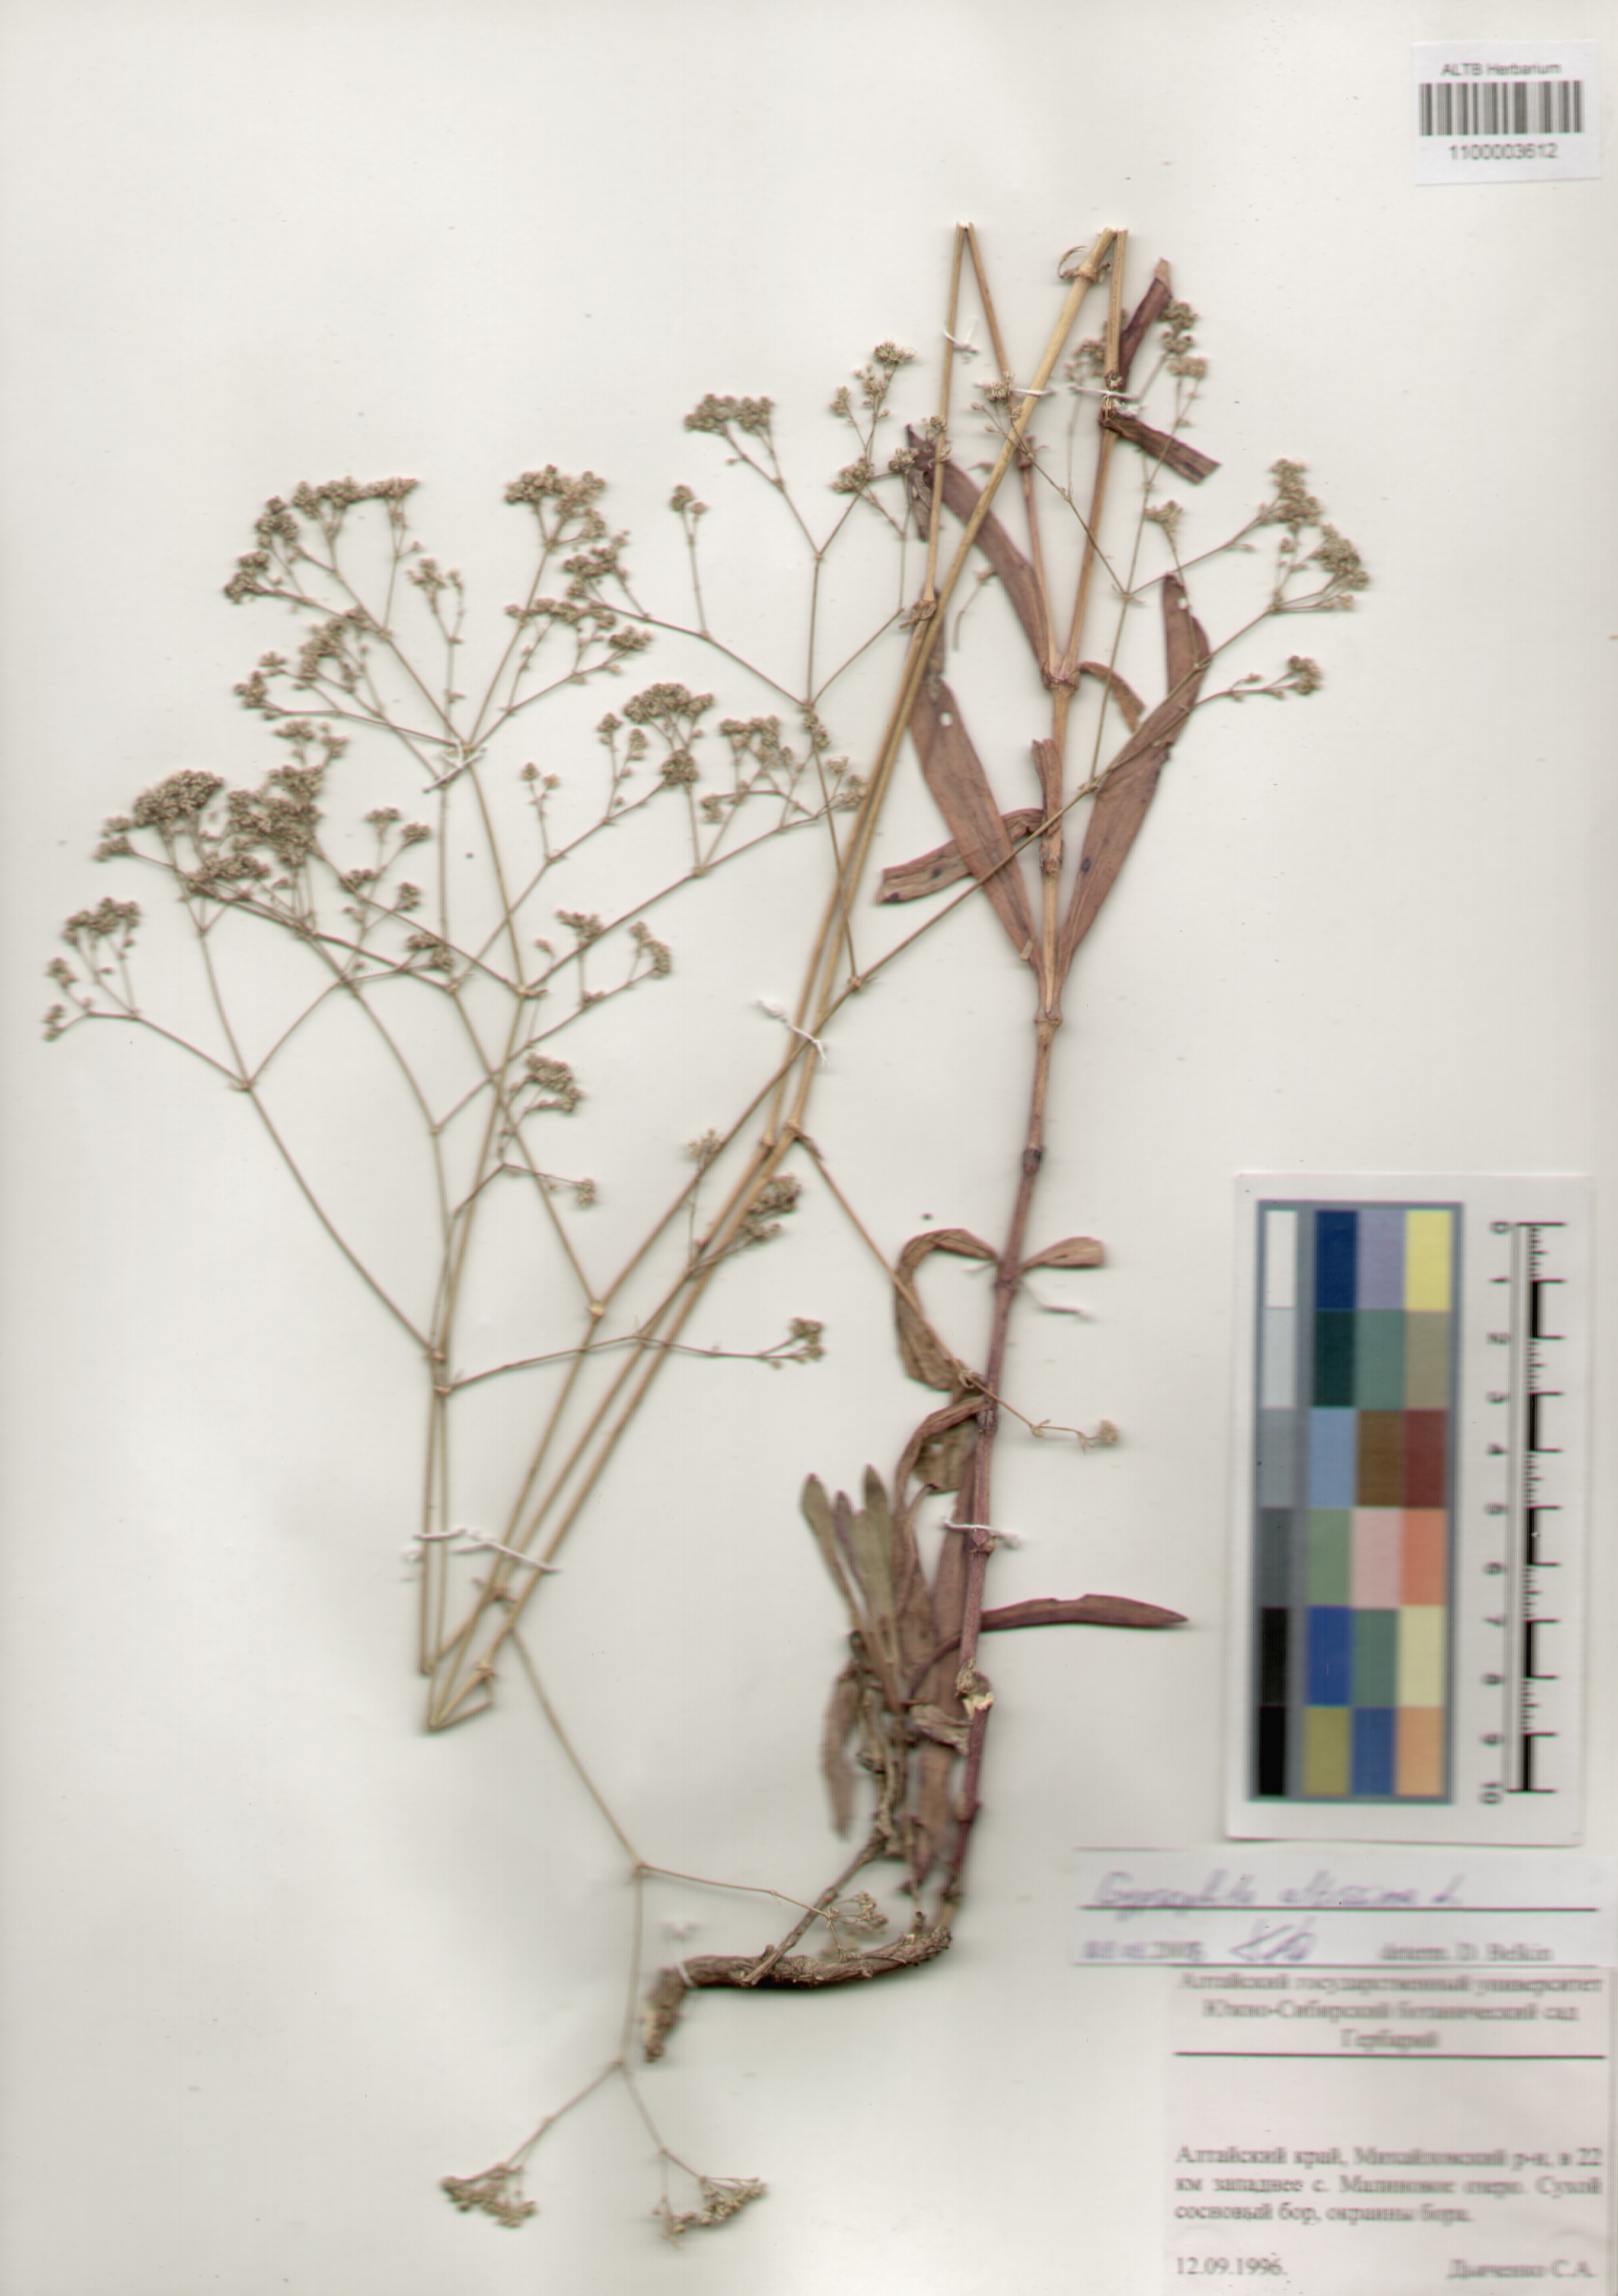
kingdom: Plantae
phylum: Tracheophyta
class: Magnoliopsida
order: Caryophyllales
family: Caryophyllaceae
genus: Gypsophila
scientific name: Gypsophila altissima
